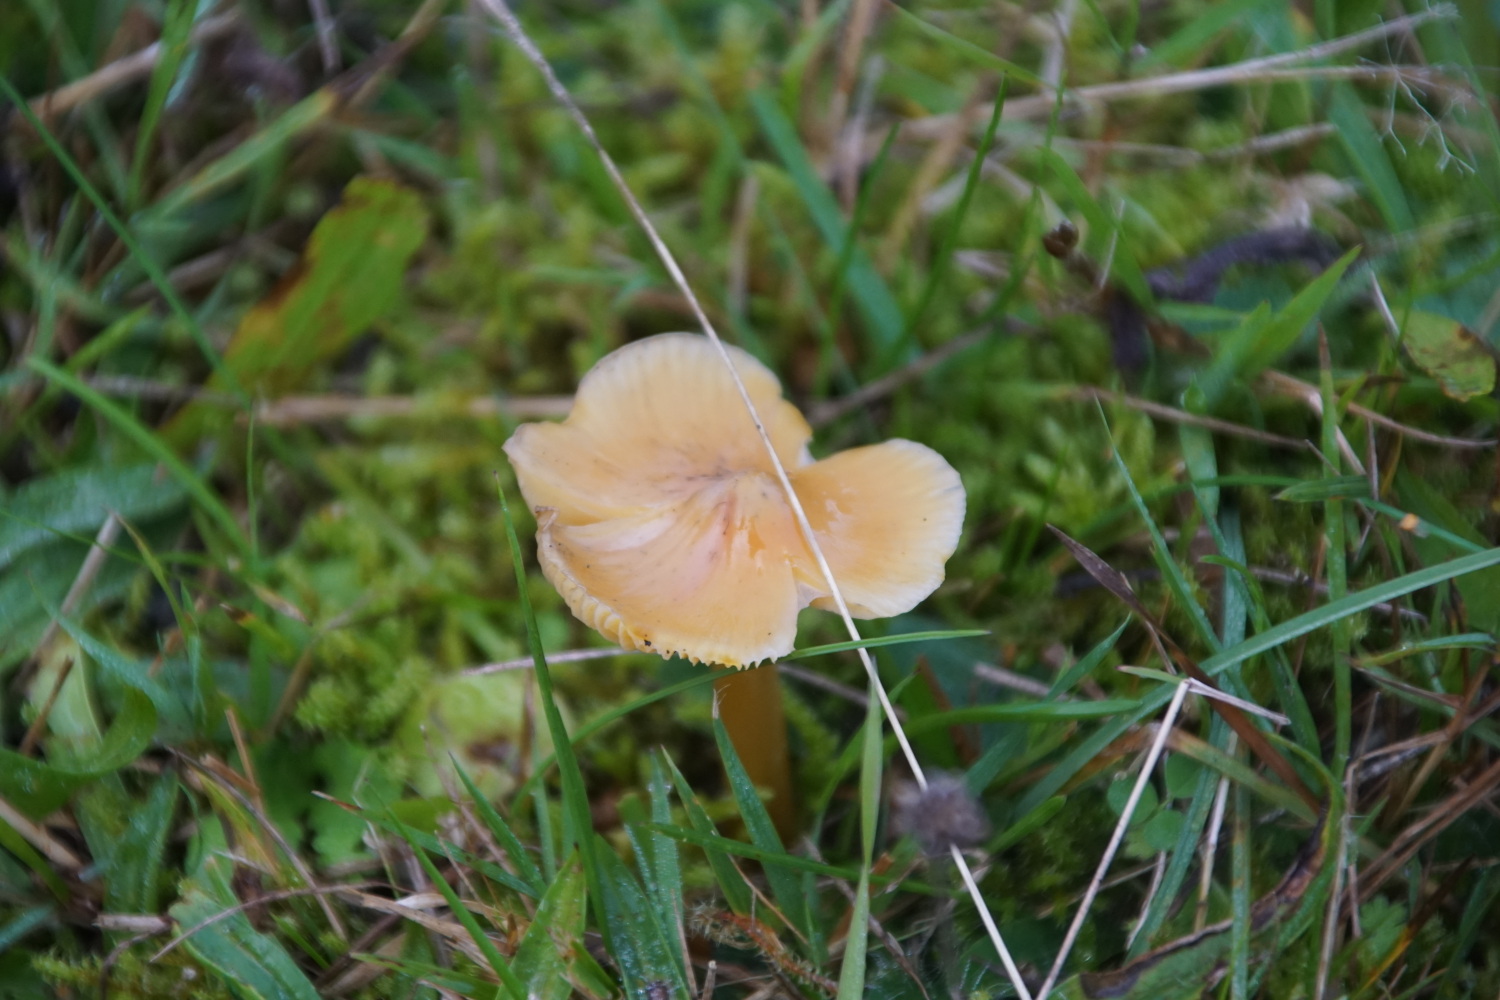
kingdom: Fungi
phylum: Basidiomycota
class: Agaricomycetes
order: Agaricales
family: Hygrophoraceae
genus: Hygrocybe
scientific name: Hygrocybe
